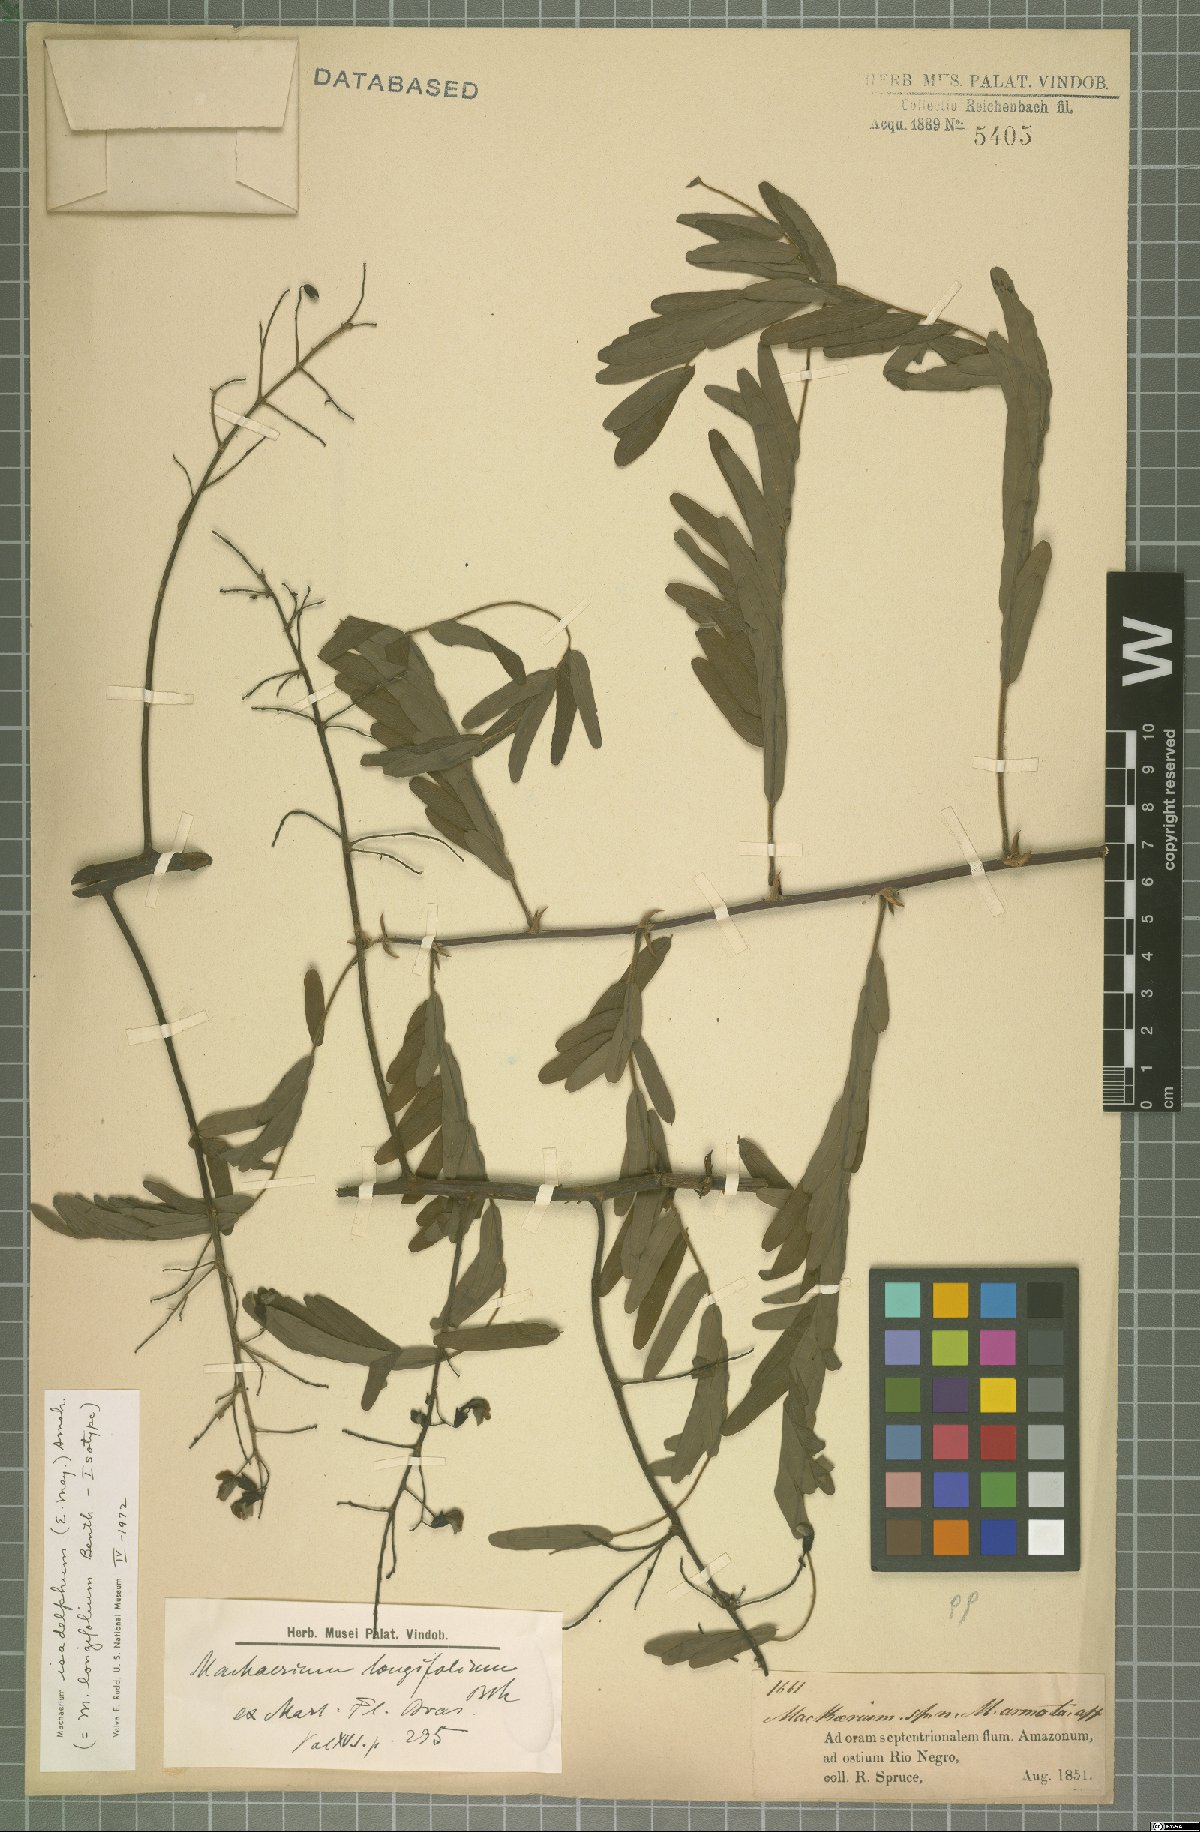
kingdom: Plantae
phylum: Tracheophyta
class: Magnoliopsida
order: Fabales
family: Fabaceae
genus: Machaerium
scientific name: Machaerium isadelphum
